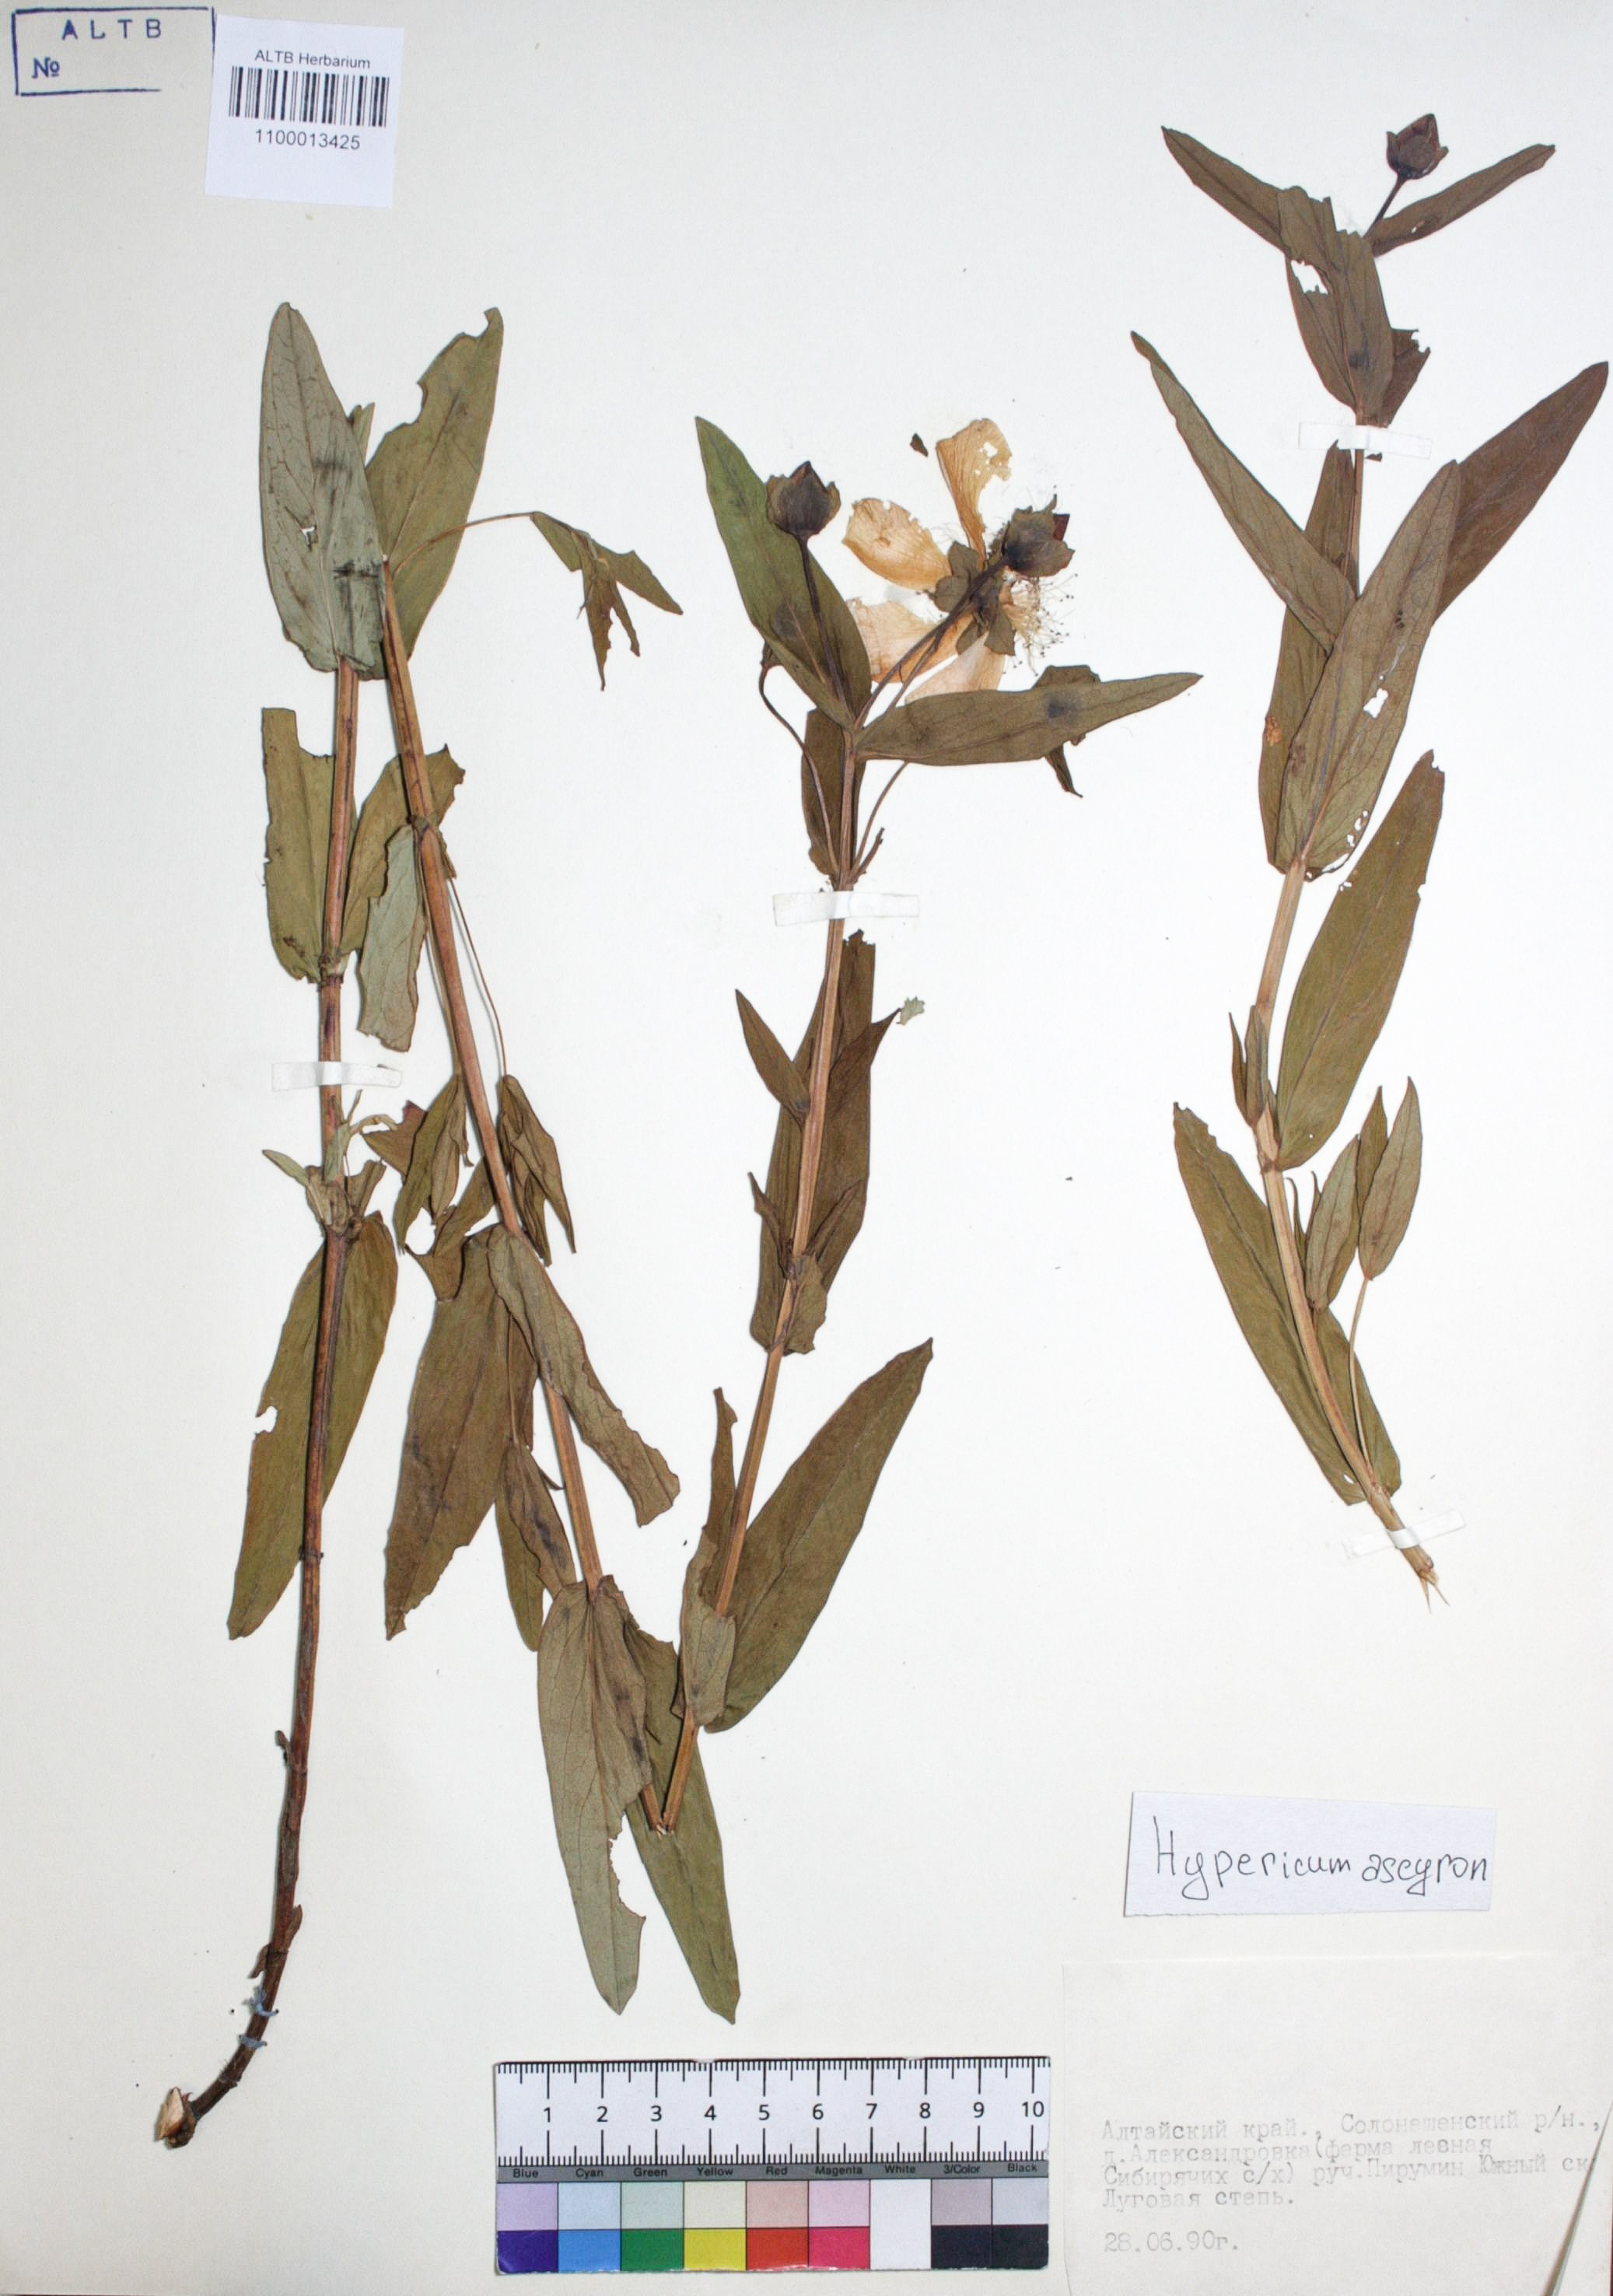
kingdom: Plantae
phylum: Tracheophyta
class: Magnoliopsida
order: Malpighiales
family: Hypericaceae
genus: Hypericum
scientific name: Hypericum ascyron
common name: Giant st. john's-wort
